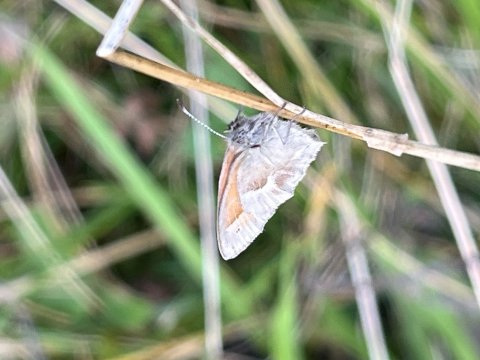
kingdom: Animalia
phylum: Arthropoda
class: Insecta
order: Lepidoptera
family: Nymphalidae
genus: Coenonympha
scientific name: Coenonympha tullia
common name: Large Heath
